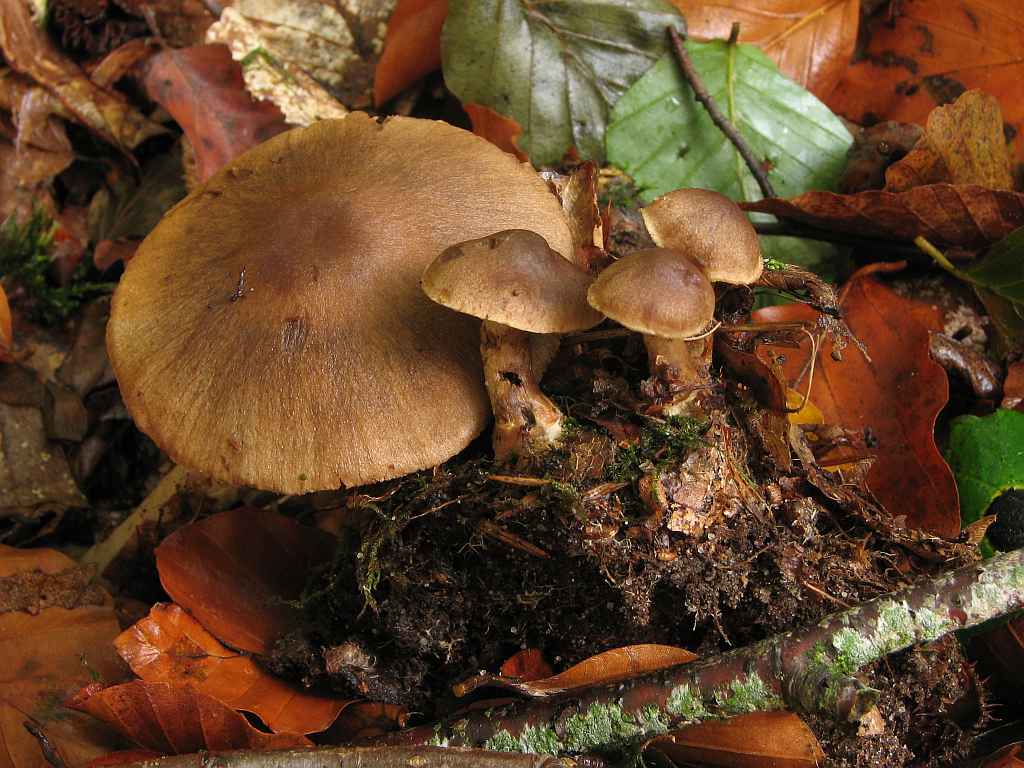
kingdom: Fungi
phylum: Basidiomycota
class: Agaricomycetes
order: Agaricales
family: Cortinariaceae
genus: Cortinarius
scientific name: Cortinarius raphanoides
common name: ræddike-slørhat
